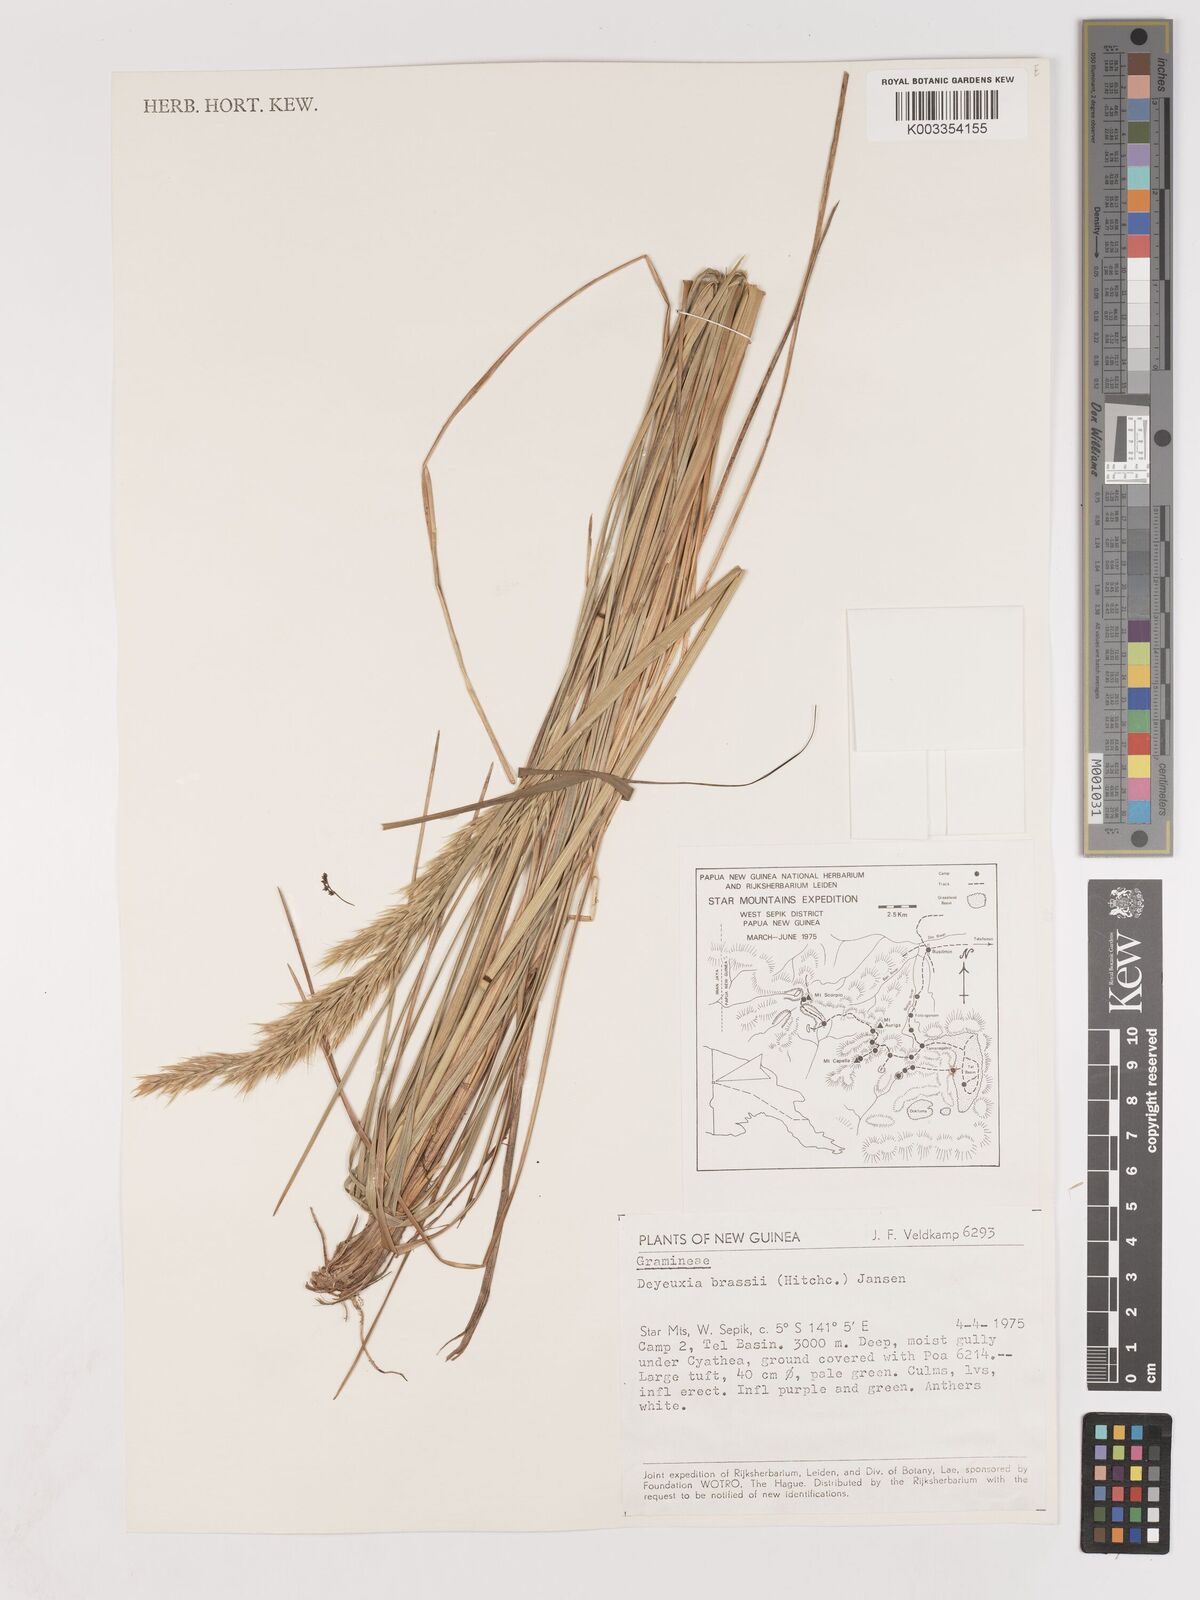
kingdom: Plantae
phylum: Tracheophyta
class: Liliopsida
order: Poales
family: Poaceae
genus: Calamagrostis
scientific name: Calamagrostis brassii
